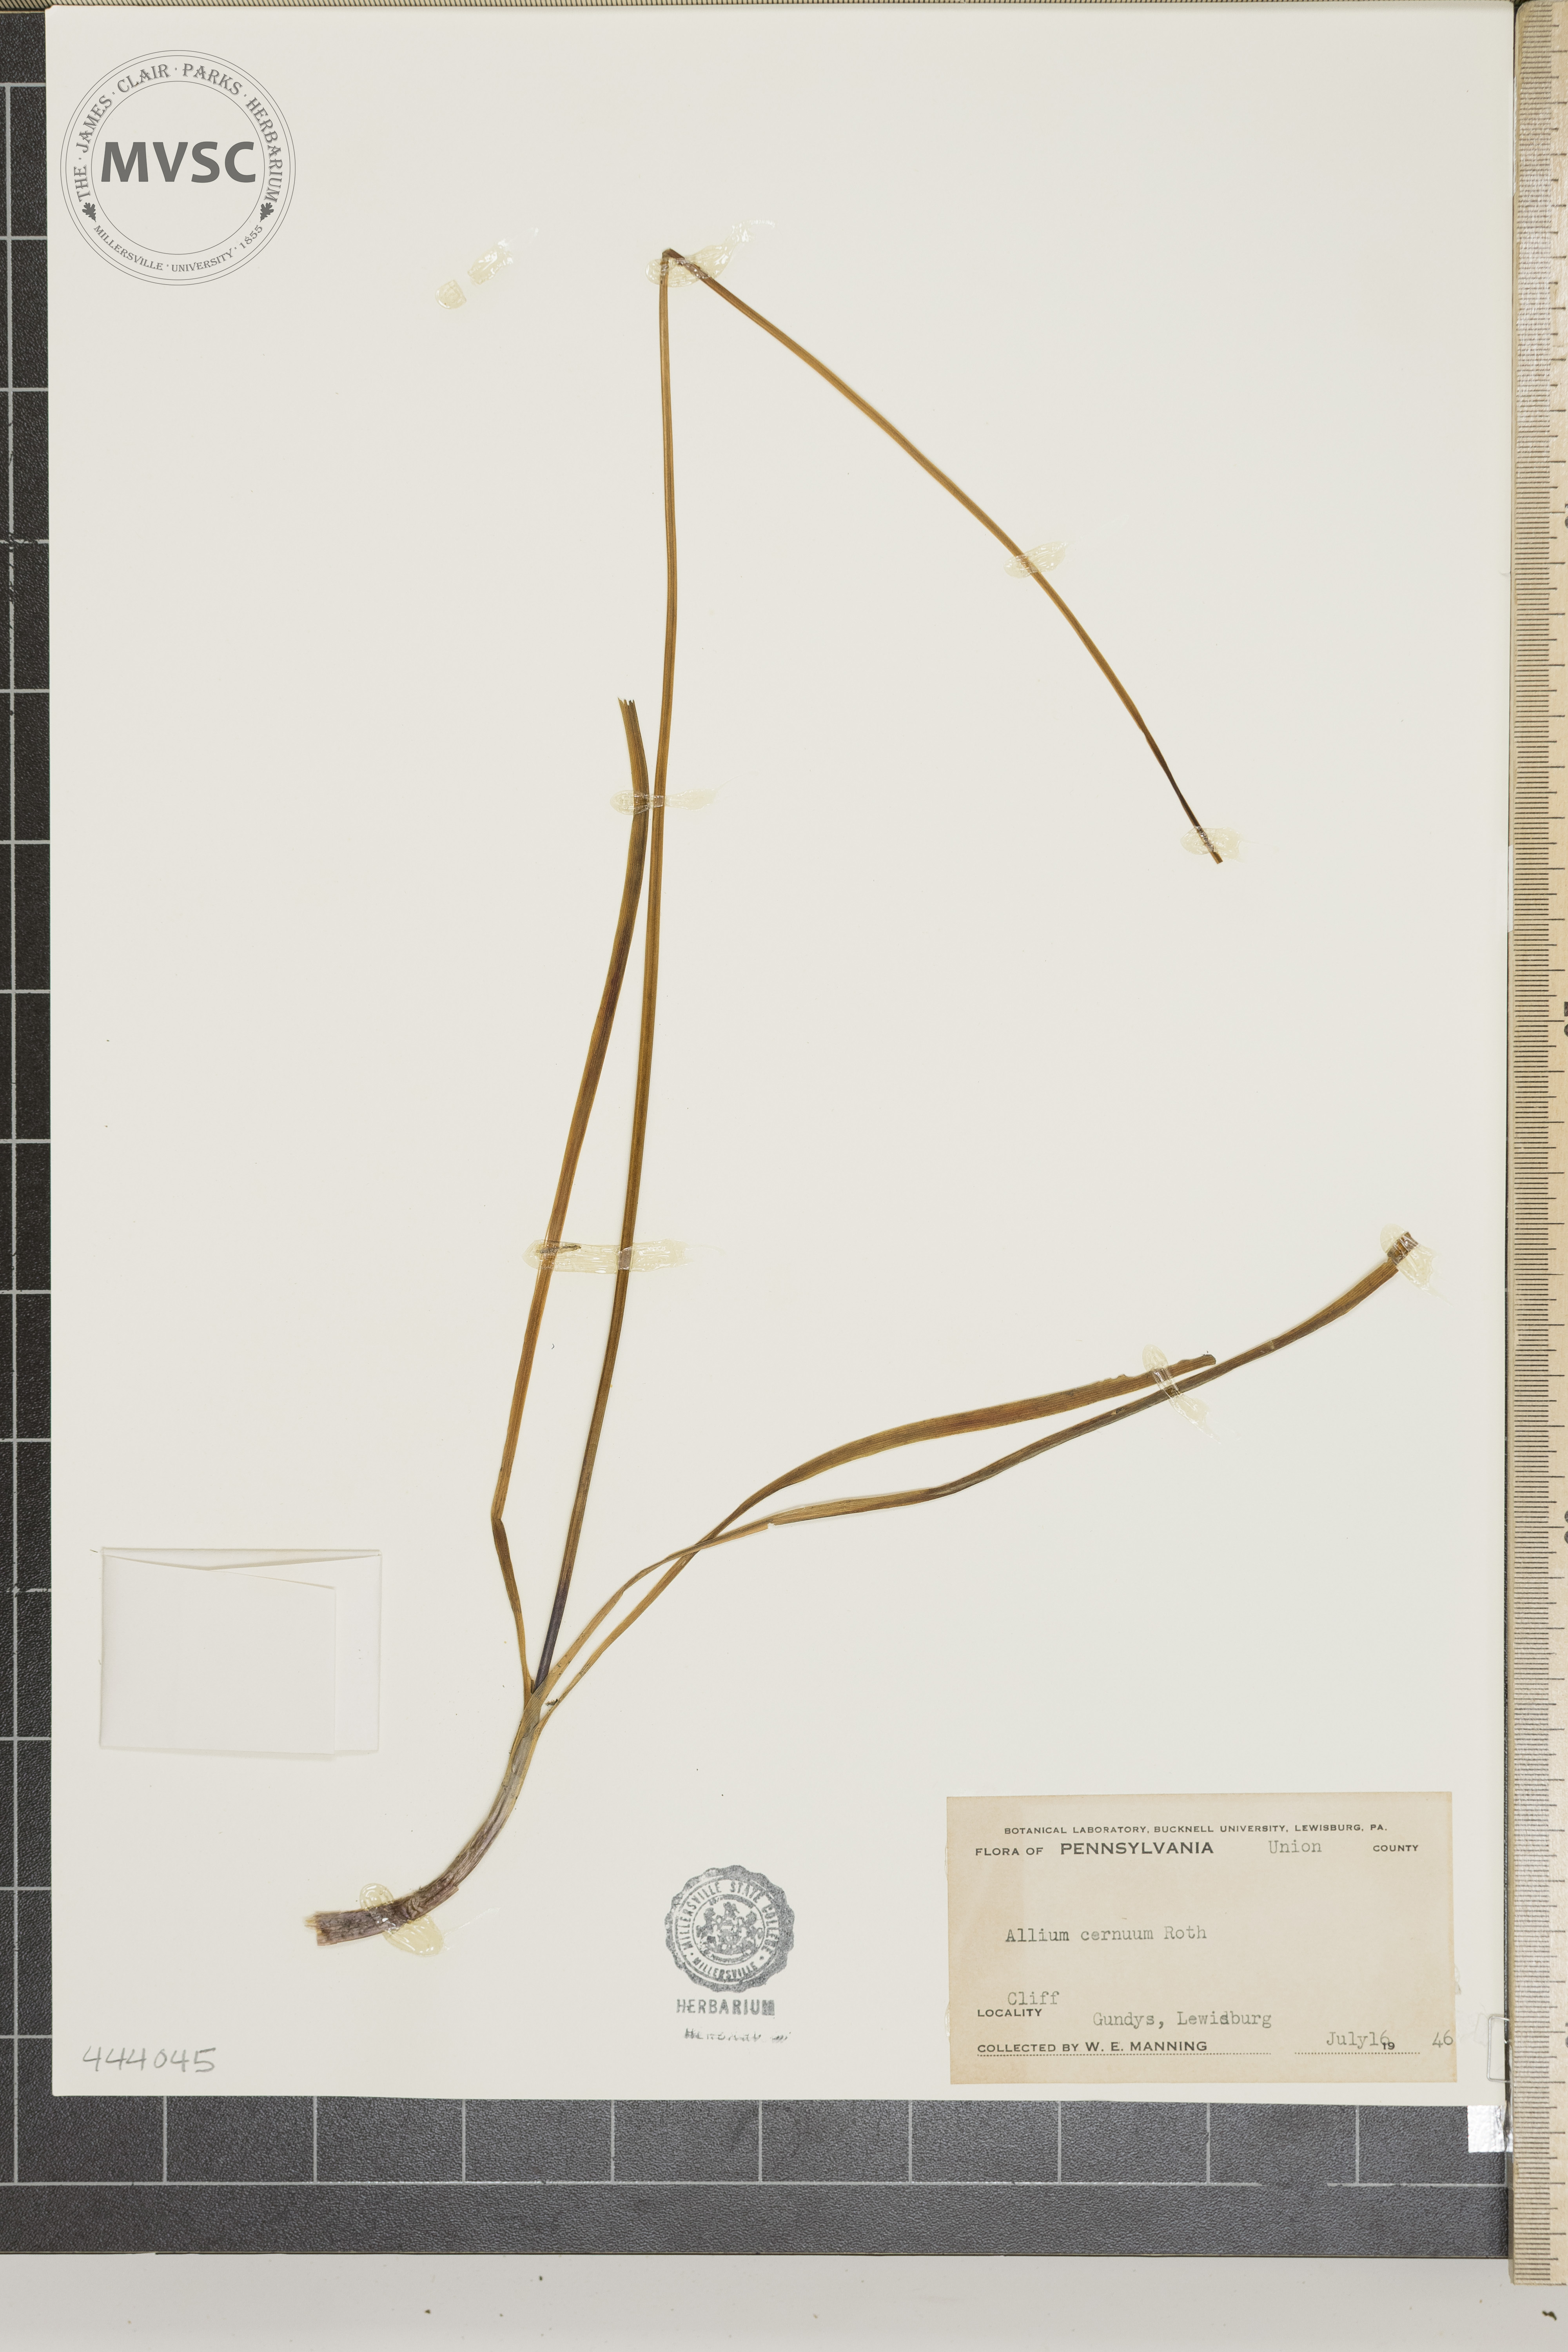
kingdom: Plantae
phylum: Tracheophyta
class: Liliopsida
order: Asparagales
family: Amaryllidaceae
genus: Allium
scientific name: Allium cernuum
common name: Nodding onion
